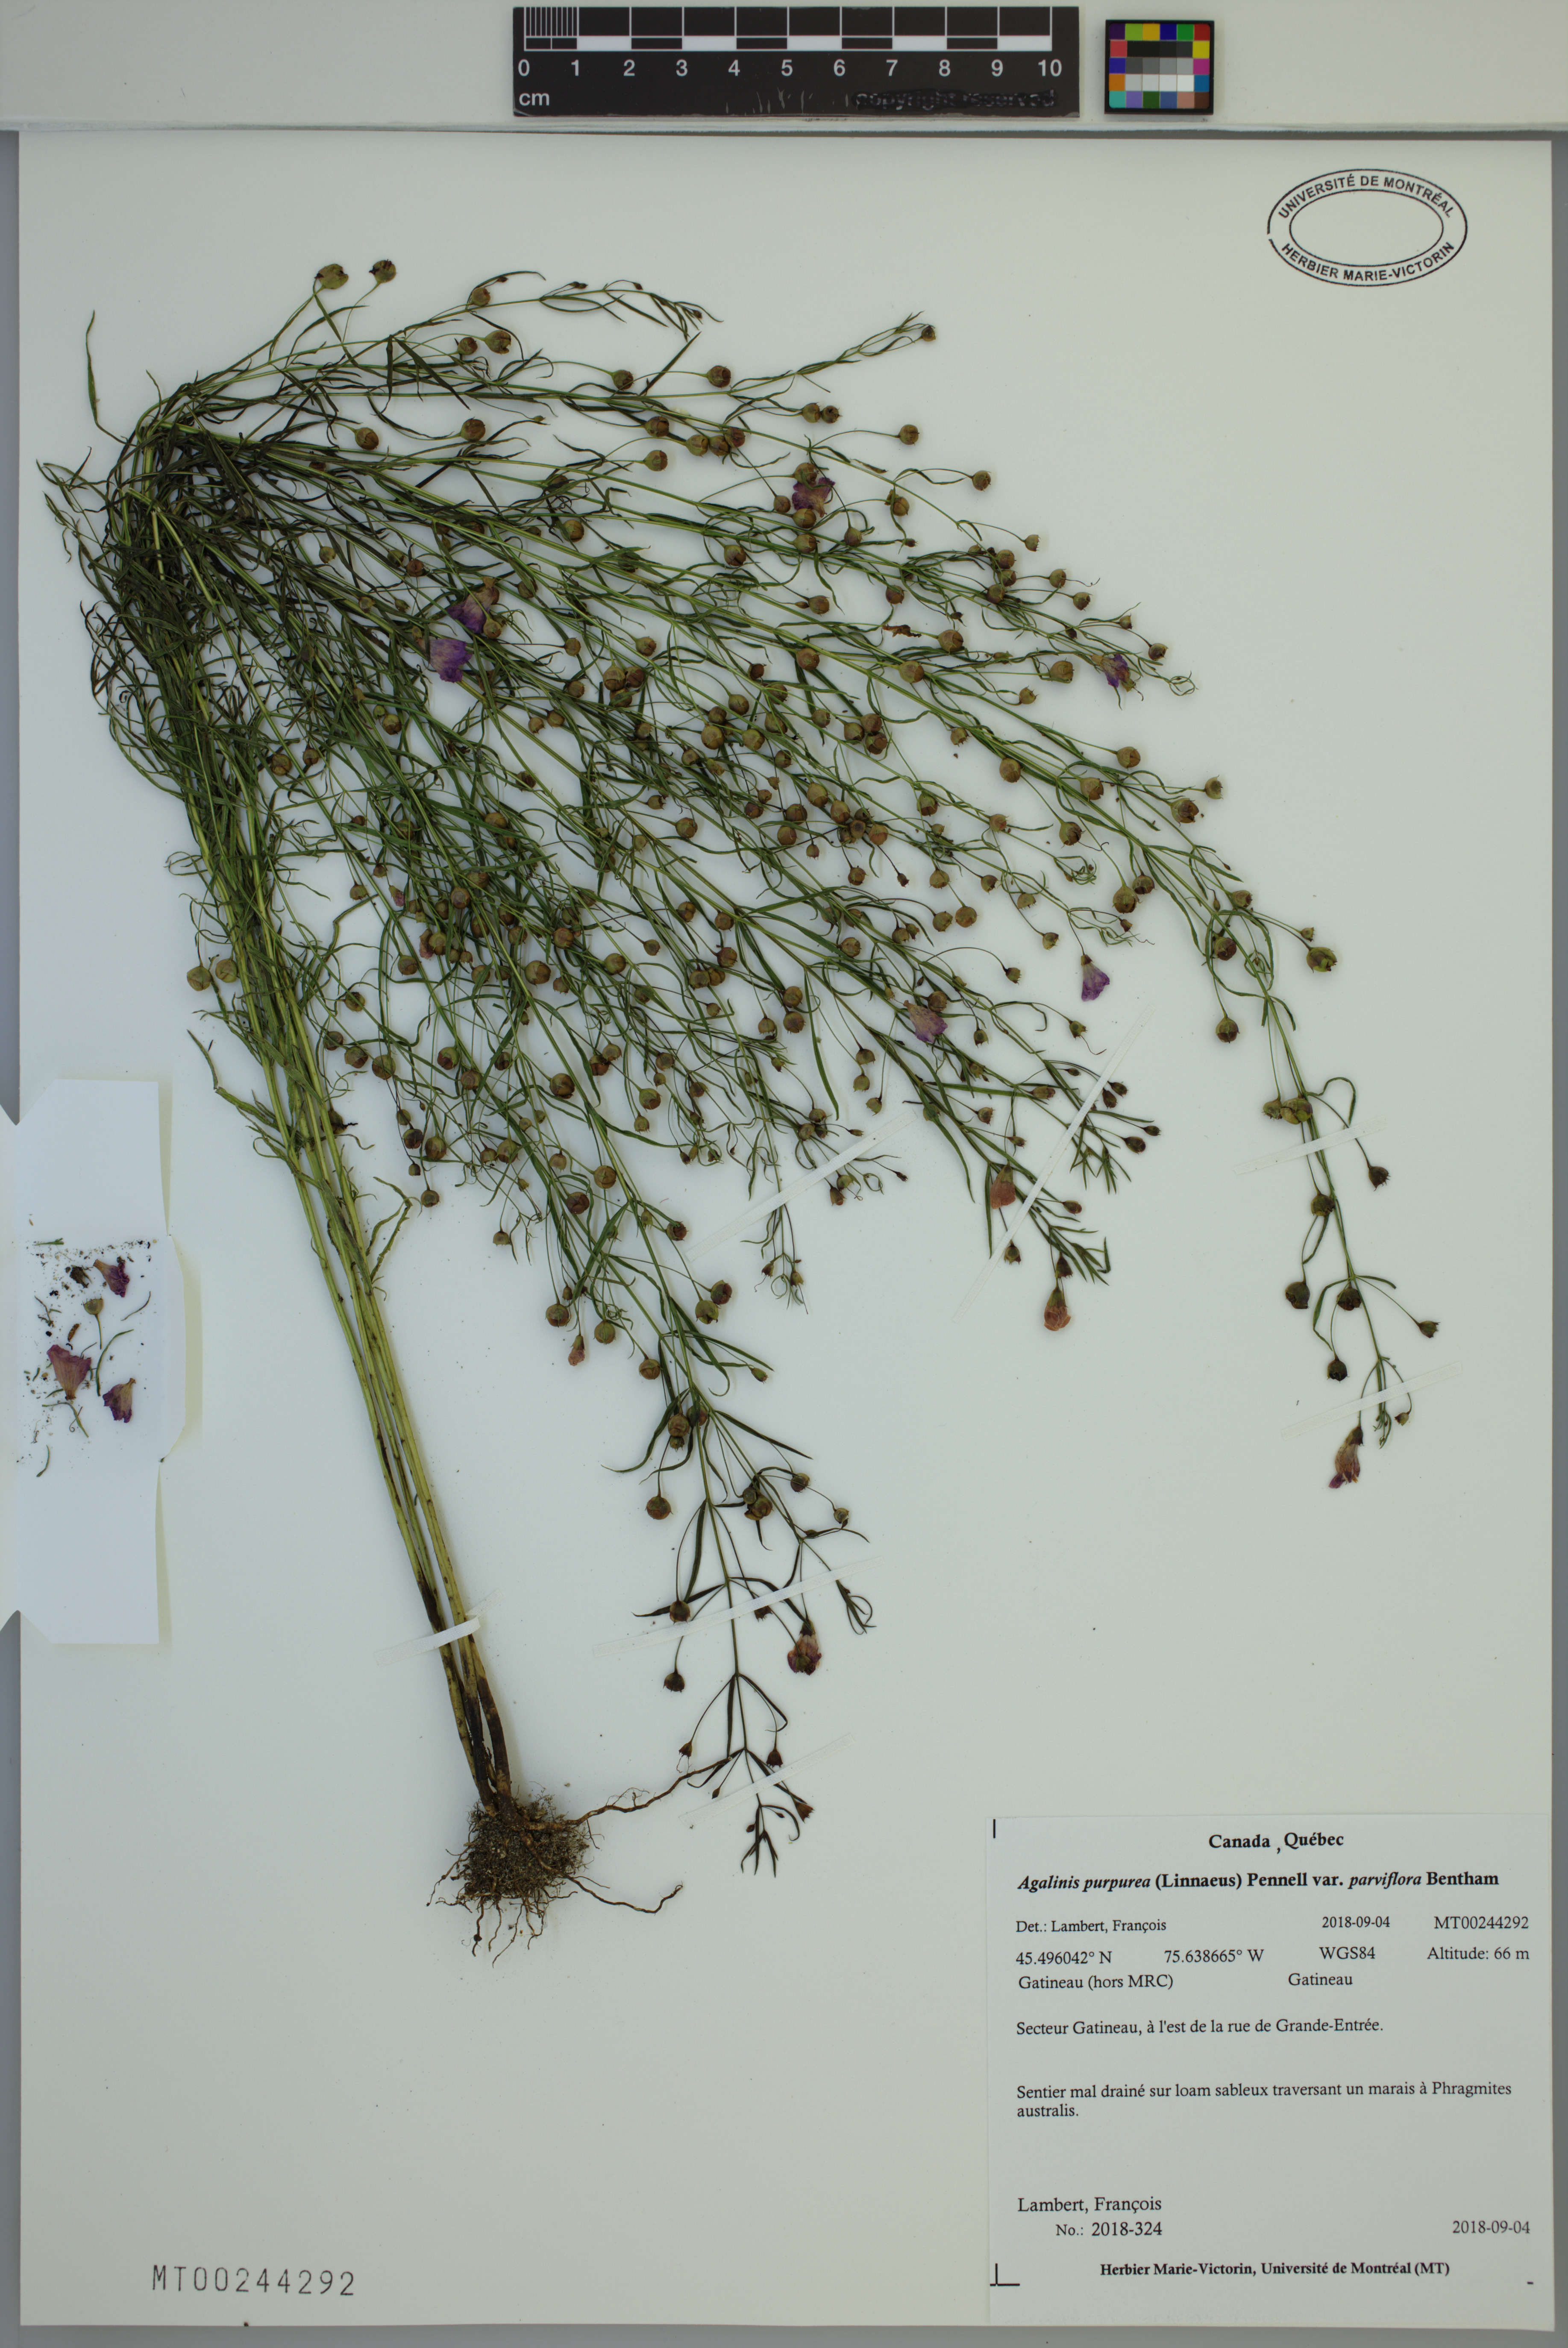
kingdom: Plantae
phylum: Tracheophyta
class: Magnoliopsida
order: Lamiales
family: Orobanchaceae
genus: Agalinis
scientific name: Agalinis purpurea
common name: Purple false foxglove
